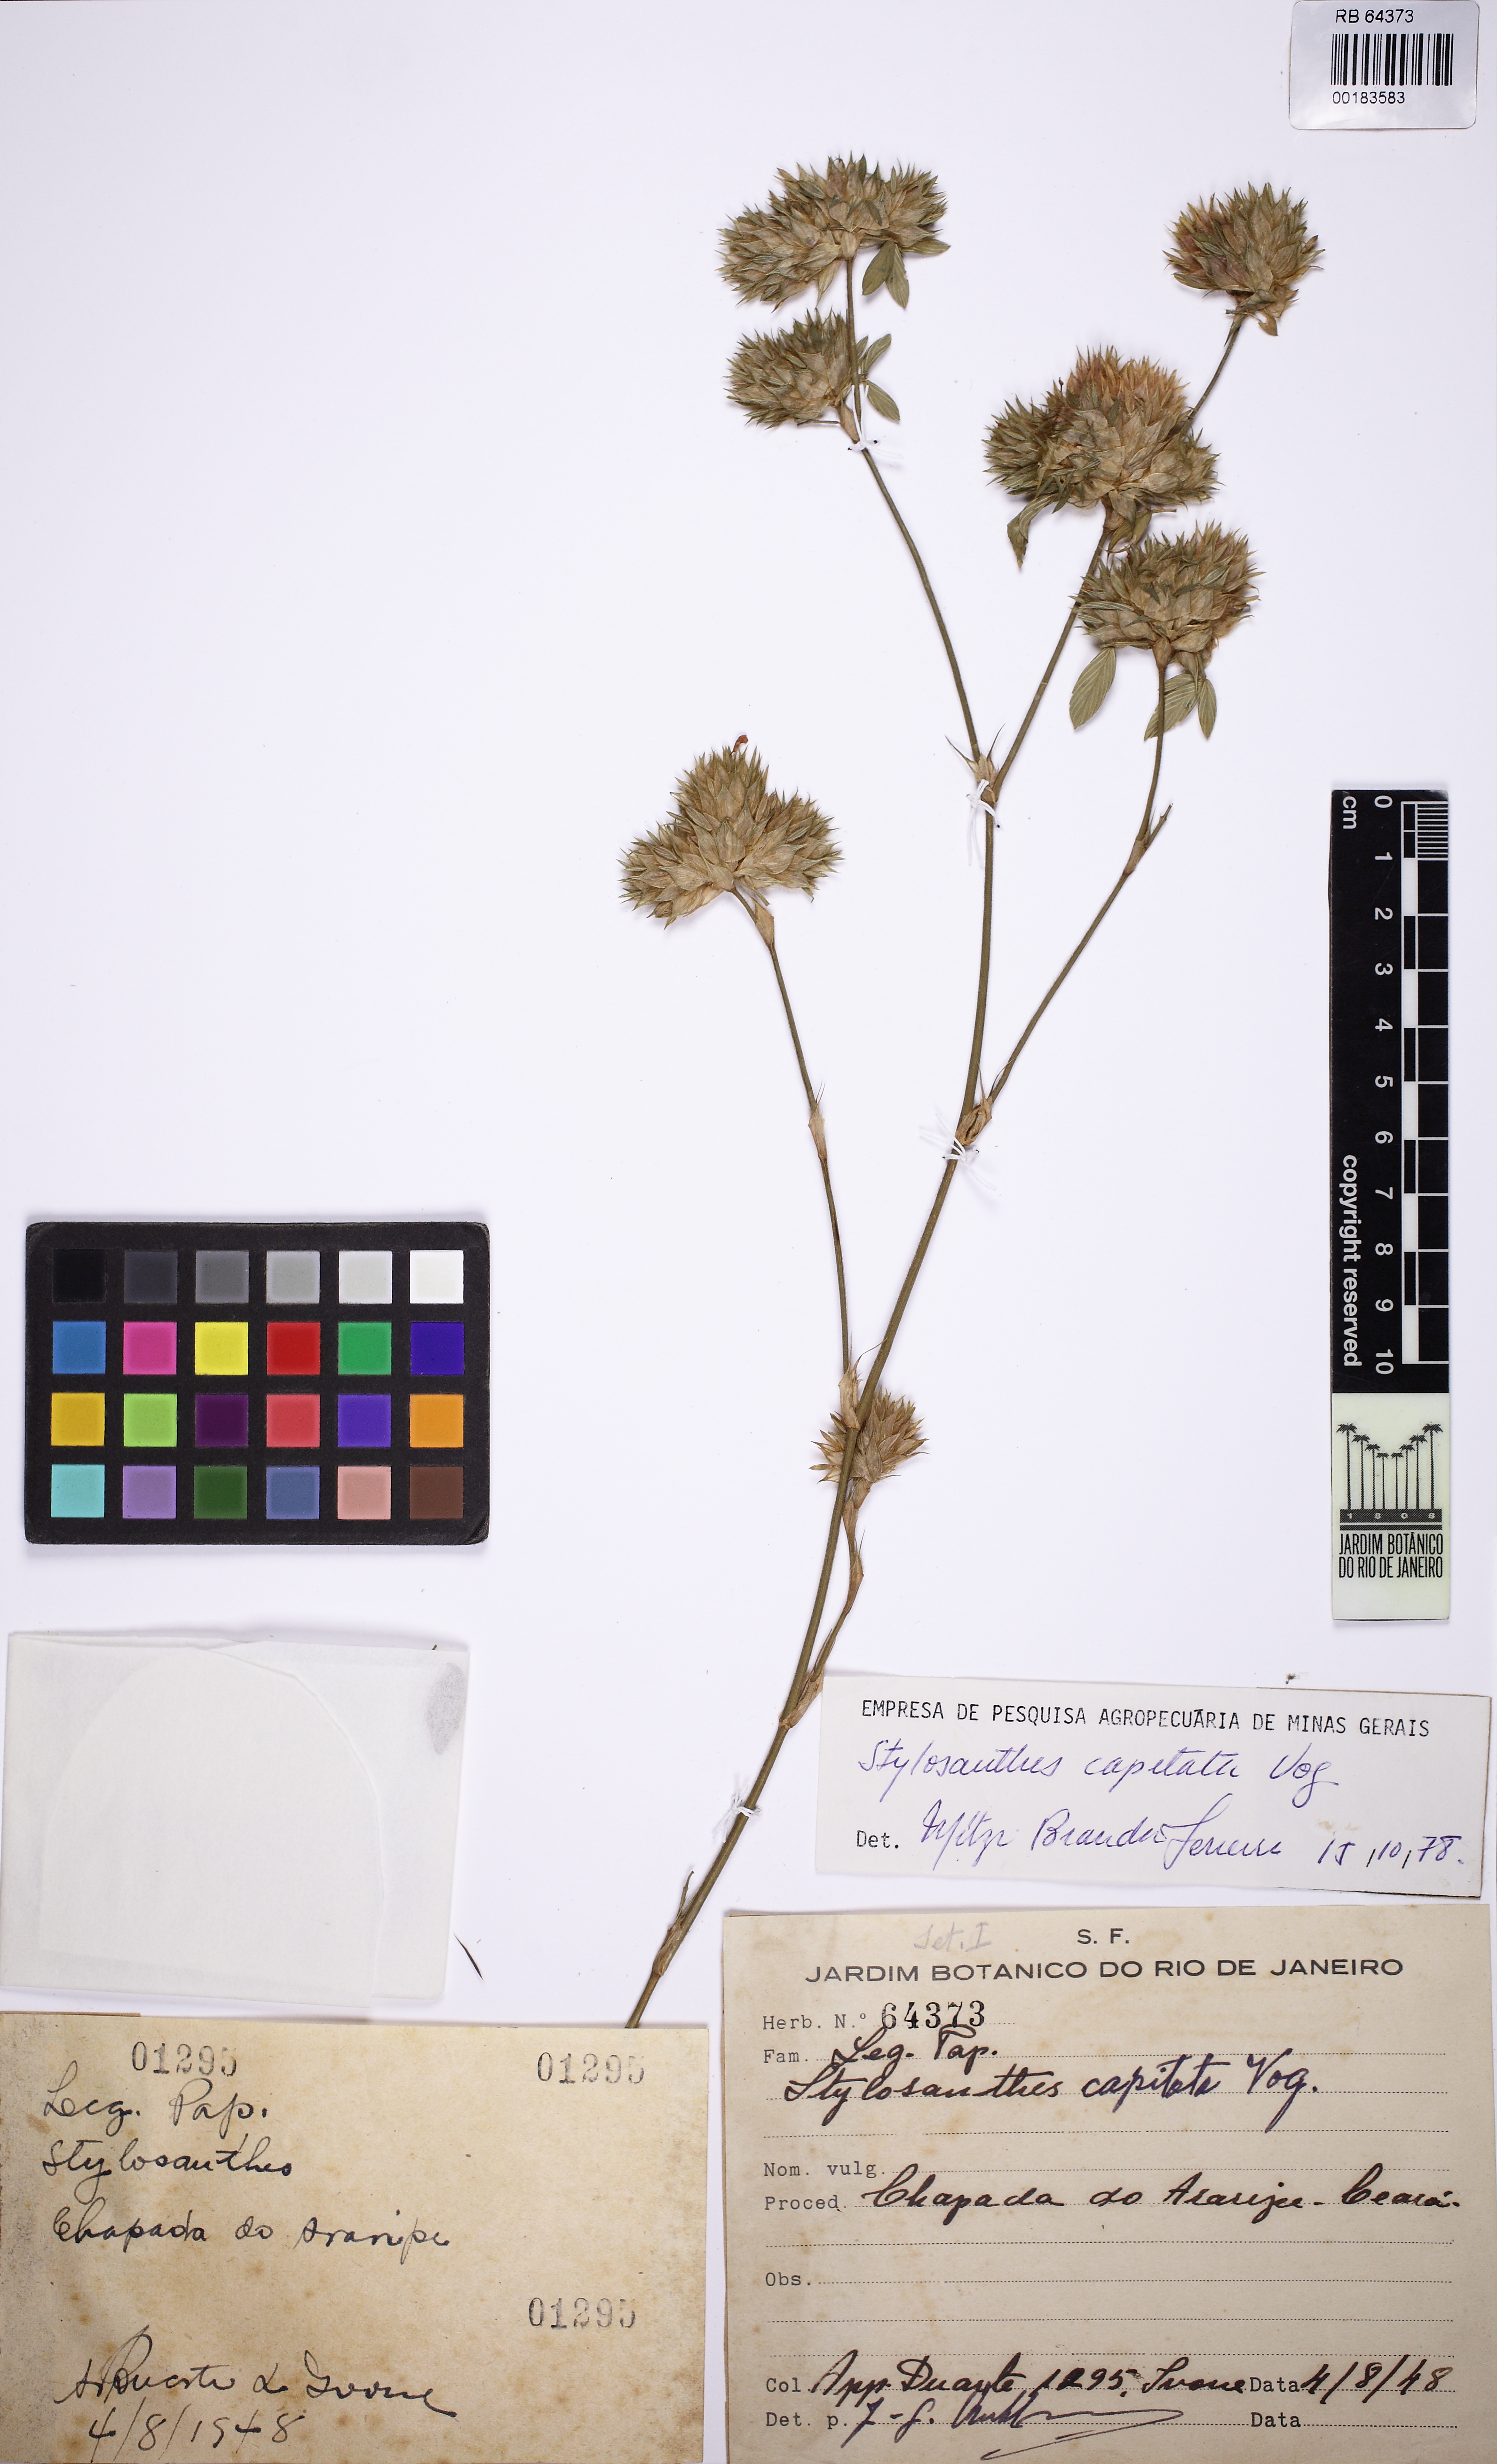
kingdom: Plantae
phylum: Tracheophyta
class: Magnoliopsida
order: Fabales
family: Fabaceae
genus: Stylosanthes
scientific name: Stylosanthes capitata
